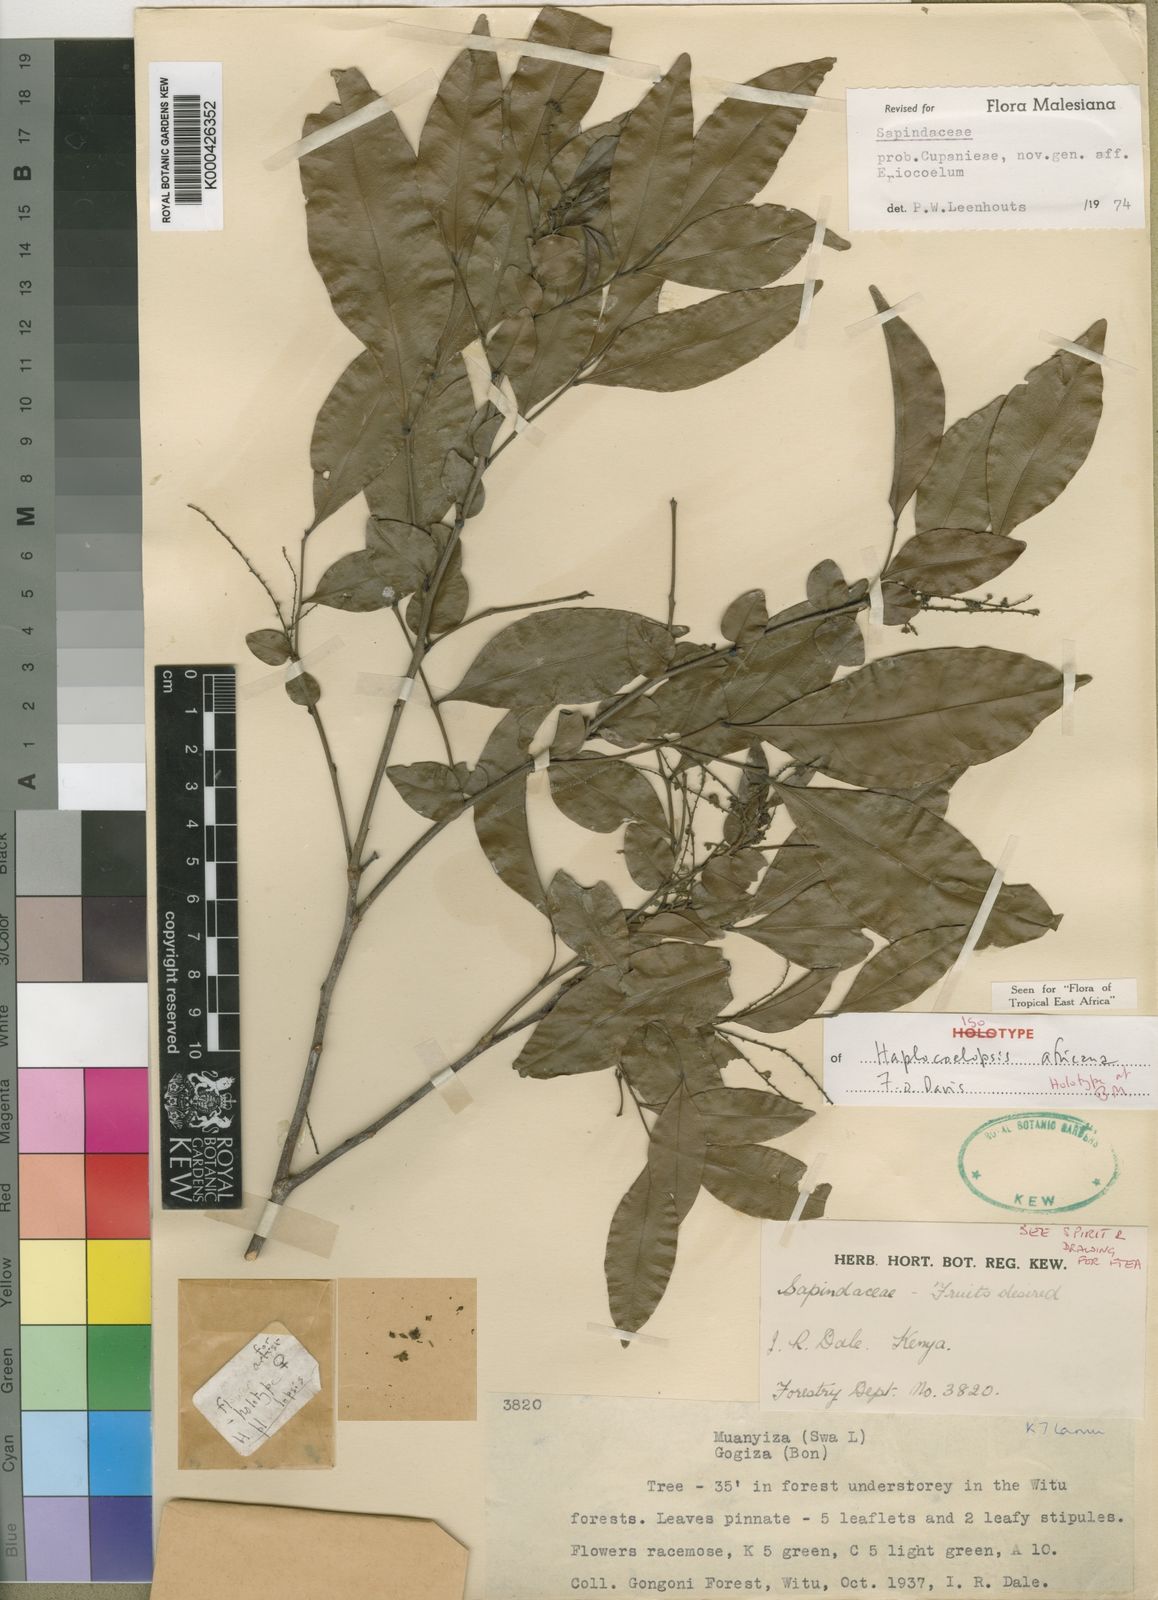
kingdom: Plantae
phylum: Tracheophyta
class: Magnoliopsida
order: Sapindales
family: Sapindaceae
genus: Haplocoelopsis
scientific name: Haplocoelopsis africana
